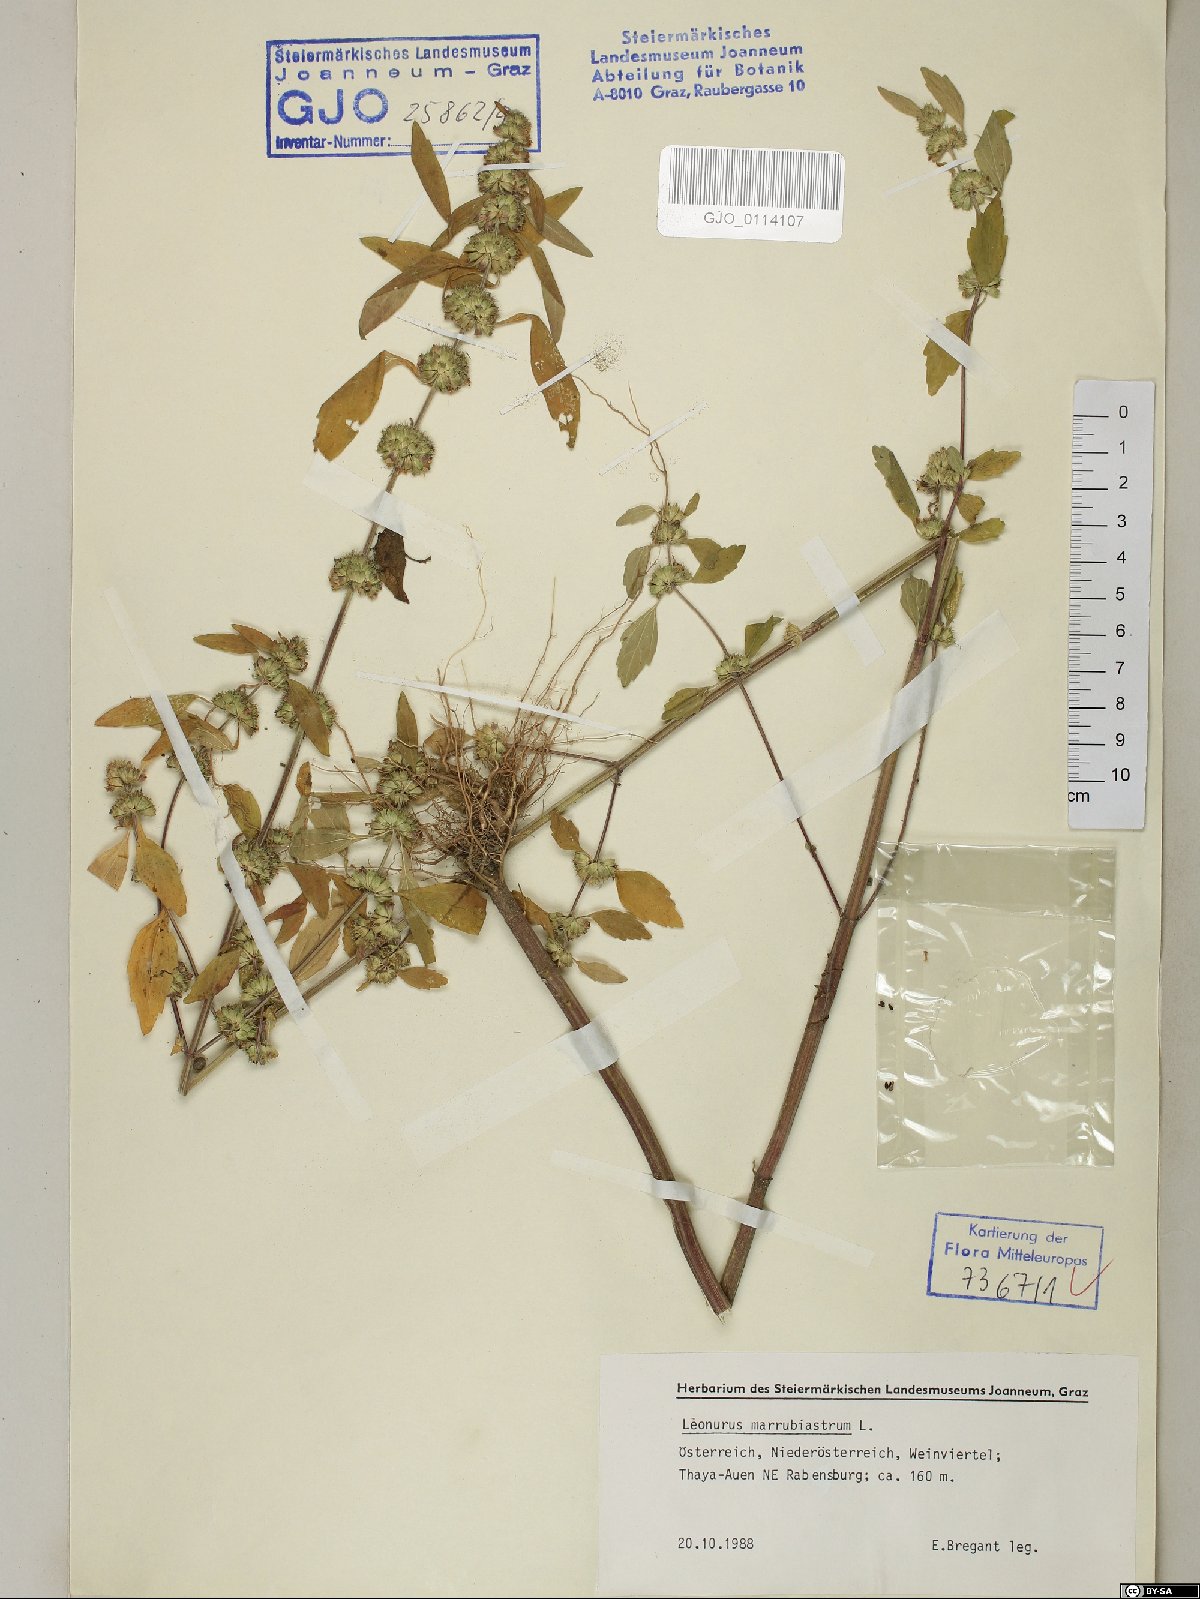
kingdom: Plantae
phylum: Tracheophyta
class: Magnoliopsida
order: Lamiales
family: Lamiaceae
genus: Chaiturus
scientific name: Chaiturus marrubiastrum
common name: Lion's tail
